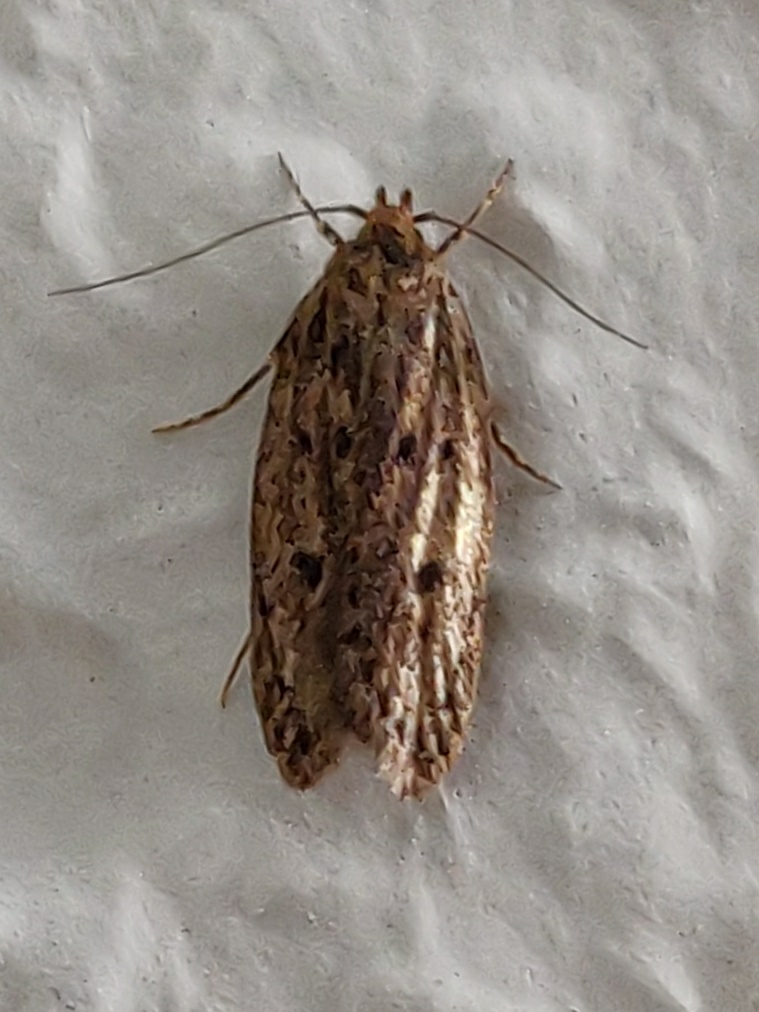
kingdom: Animalia
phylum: Arthropoda
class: Insecta
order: Lepidoptera
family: Oecophoridae
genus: Hofmannophila
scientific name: Hofmannophila pseudospretella
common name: Frømøl
